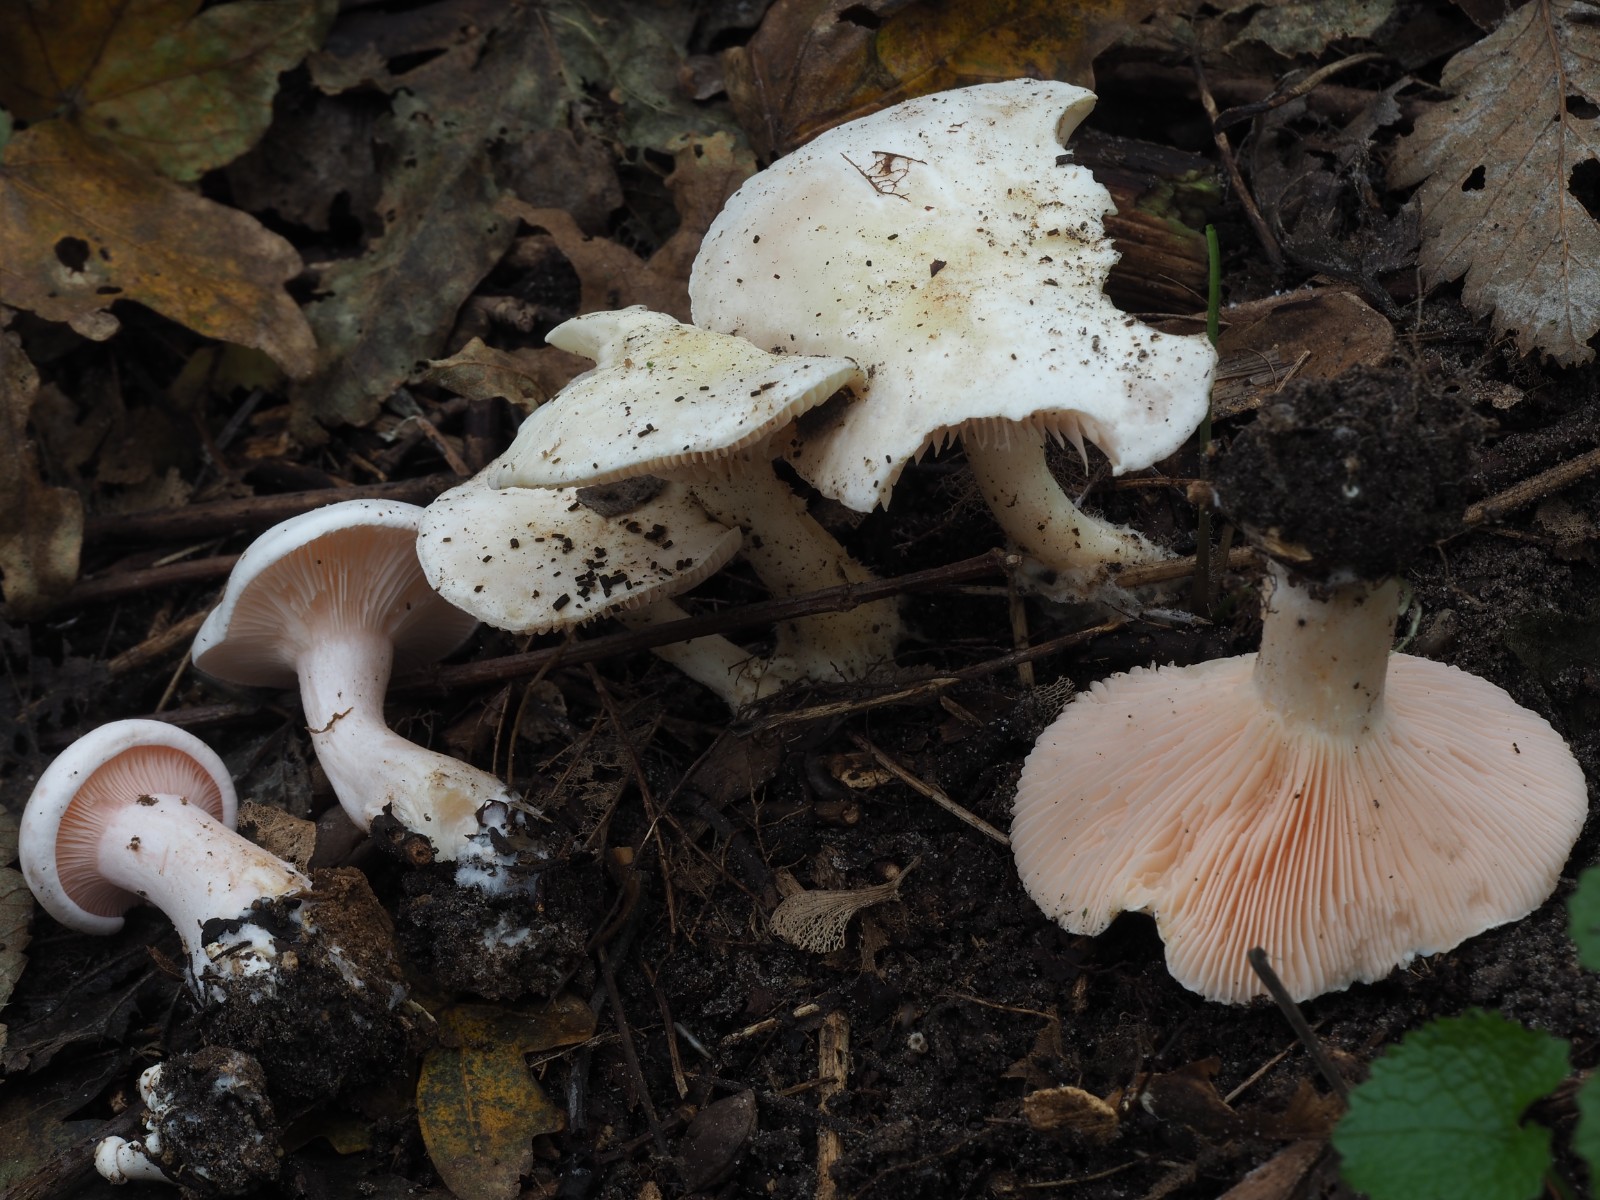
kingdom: Fungi
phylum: Basidiomycota
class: Agaricomycetes
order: Agaricales
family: Tricholomataceae
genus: Pseudoclitopilus
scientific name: Pseudoclitopilus rhodoleucus
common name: rosabladet tragtridderhat
